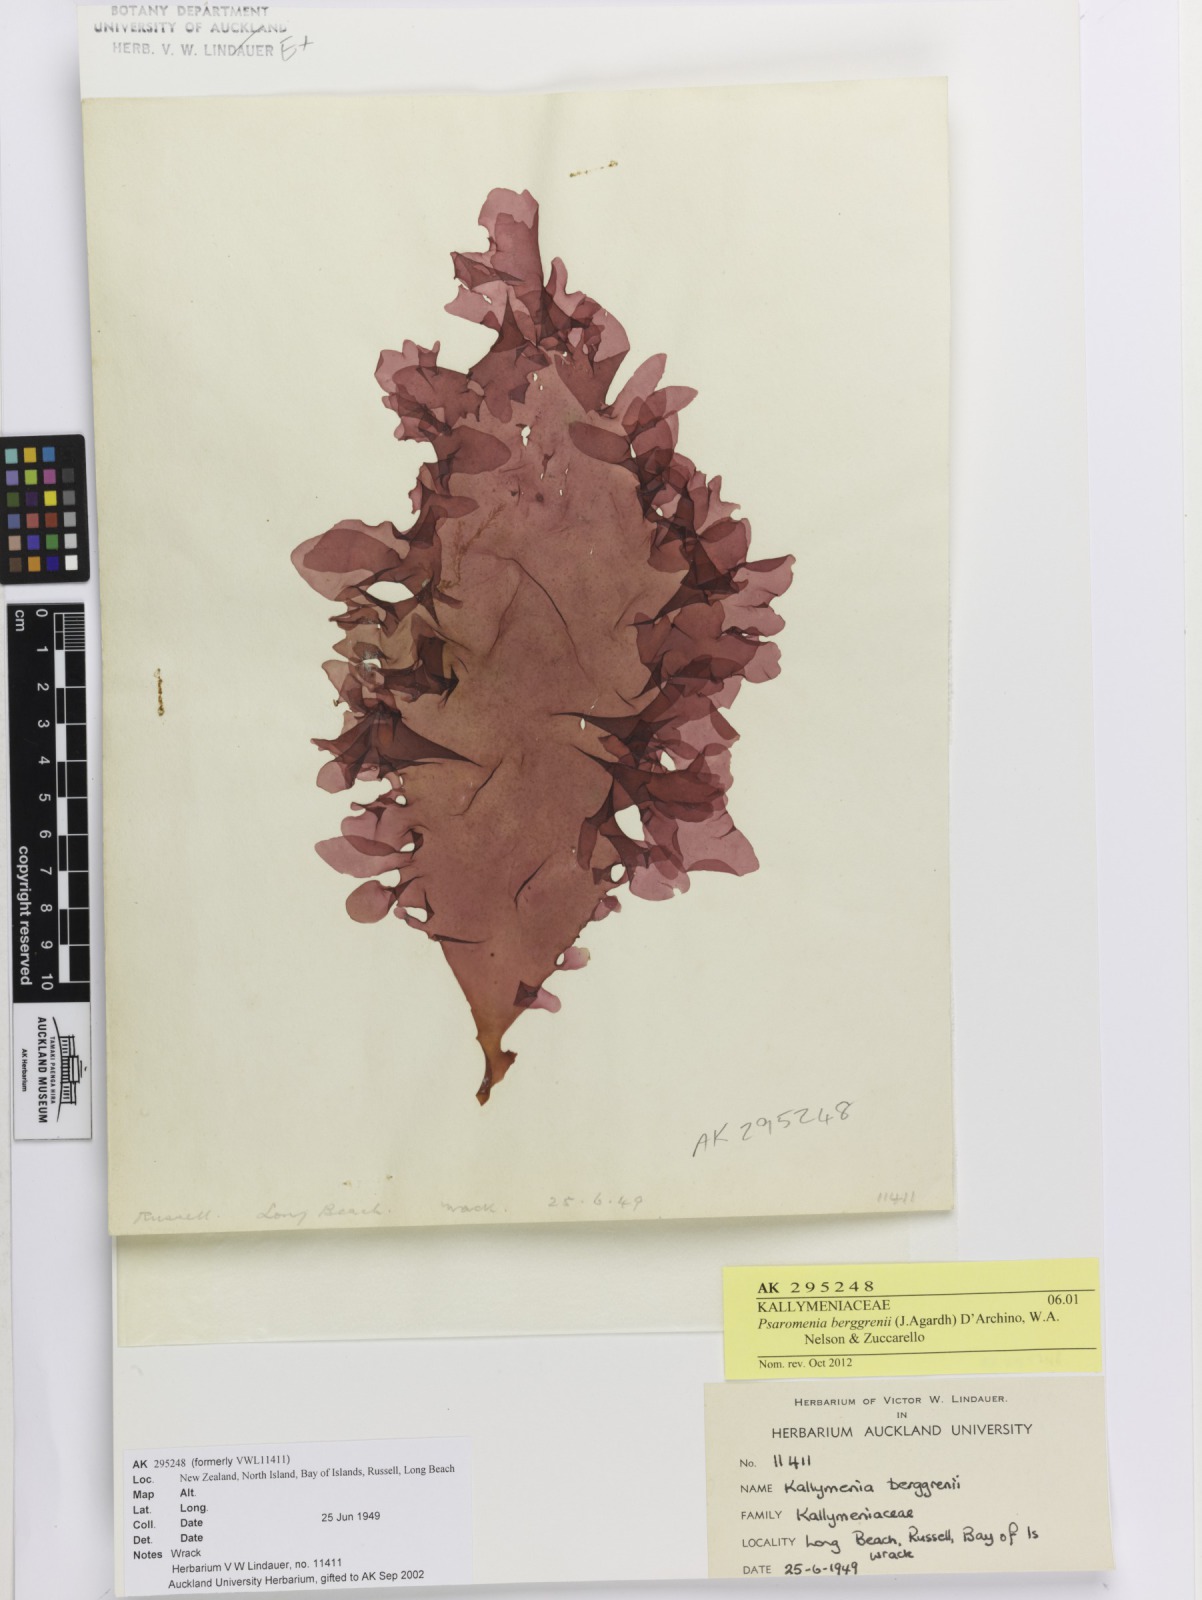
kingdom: Plantae
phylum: Rhodophyta
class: Florideophyceae
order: Gigartinales
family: Kallymeniaceae
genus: Psaromenia
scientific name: Psaromenia berggrenii
